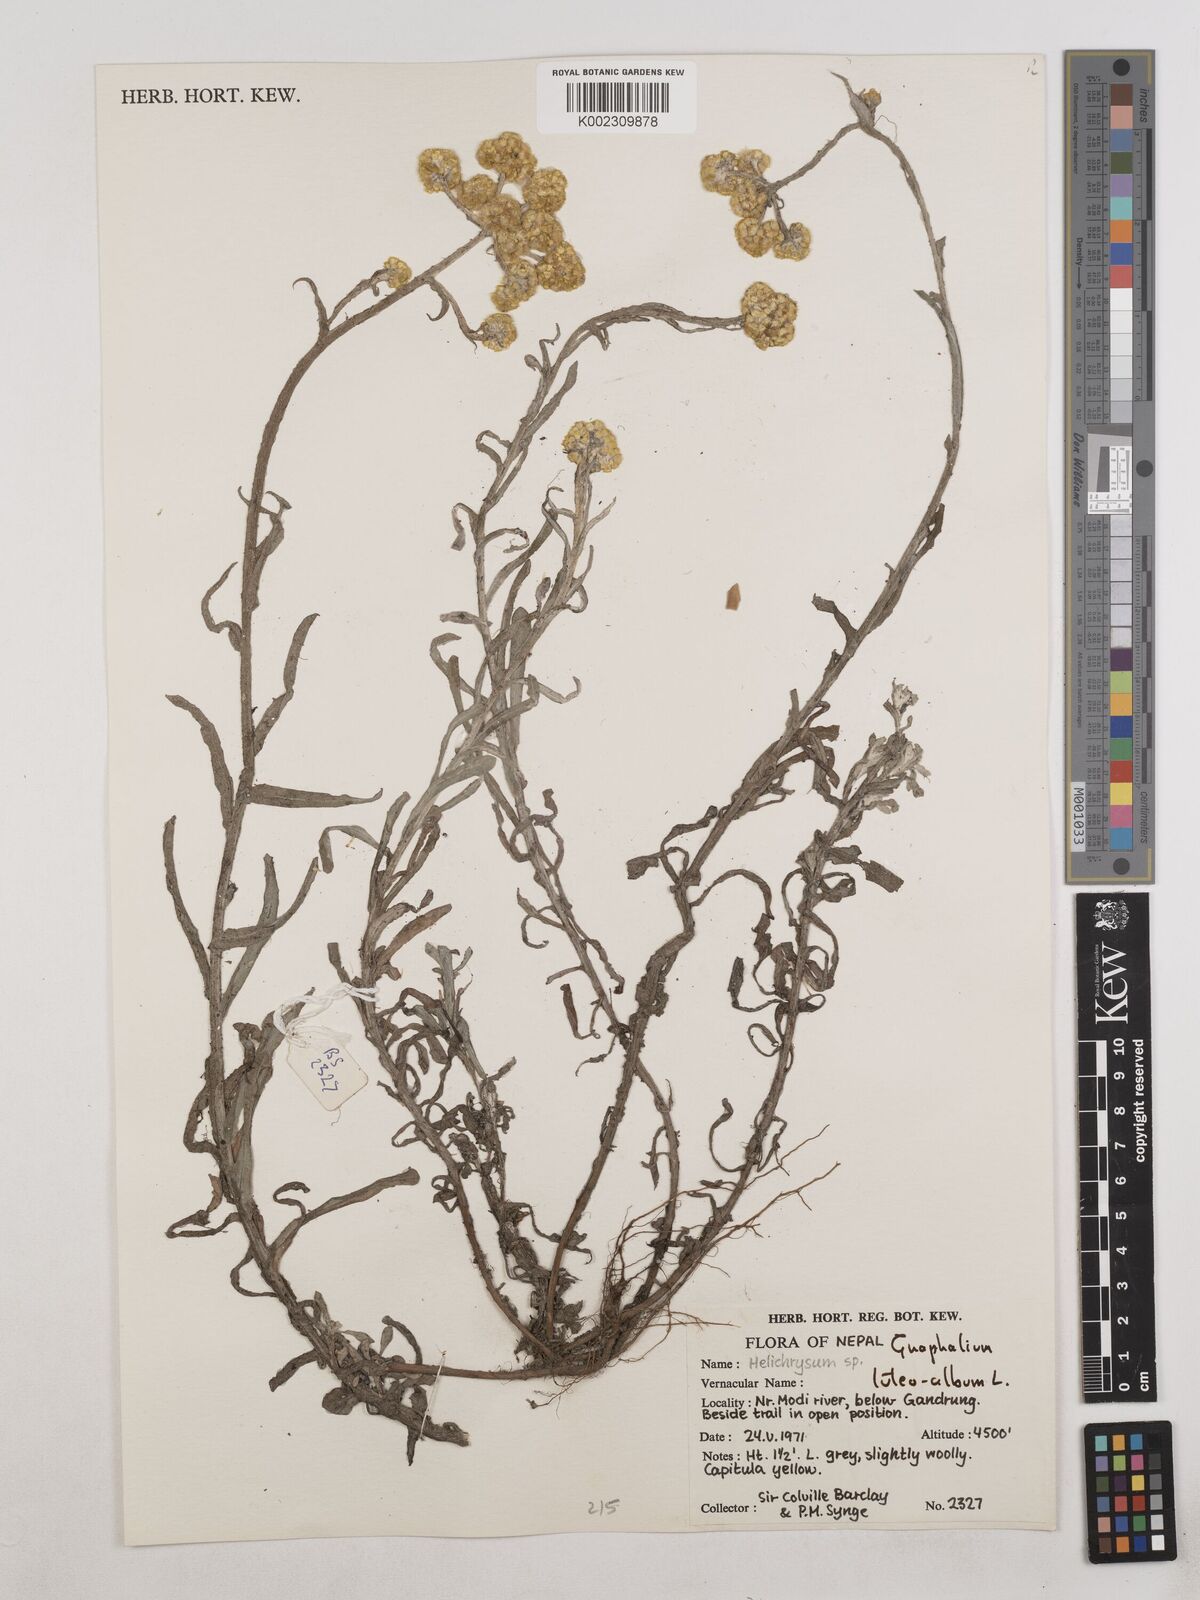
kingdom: Plantae
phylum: Tracheophyta
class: Magnoliopsida
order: Asterales
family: Asteraceae
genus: Pseudognaphalium
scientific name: Pseudognaphalium affine
